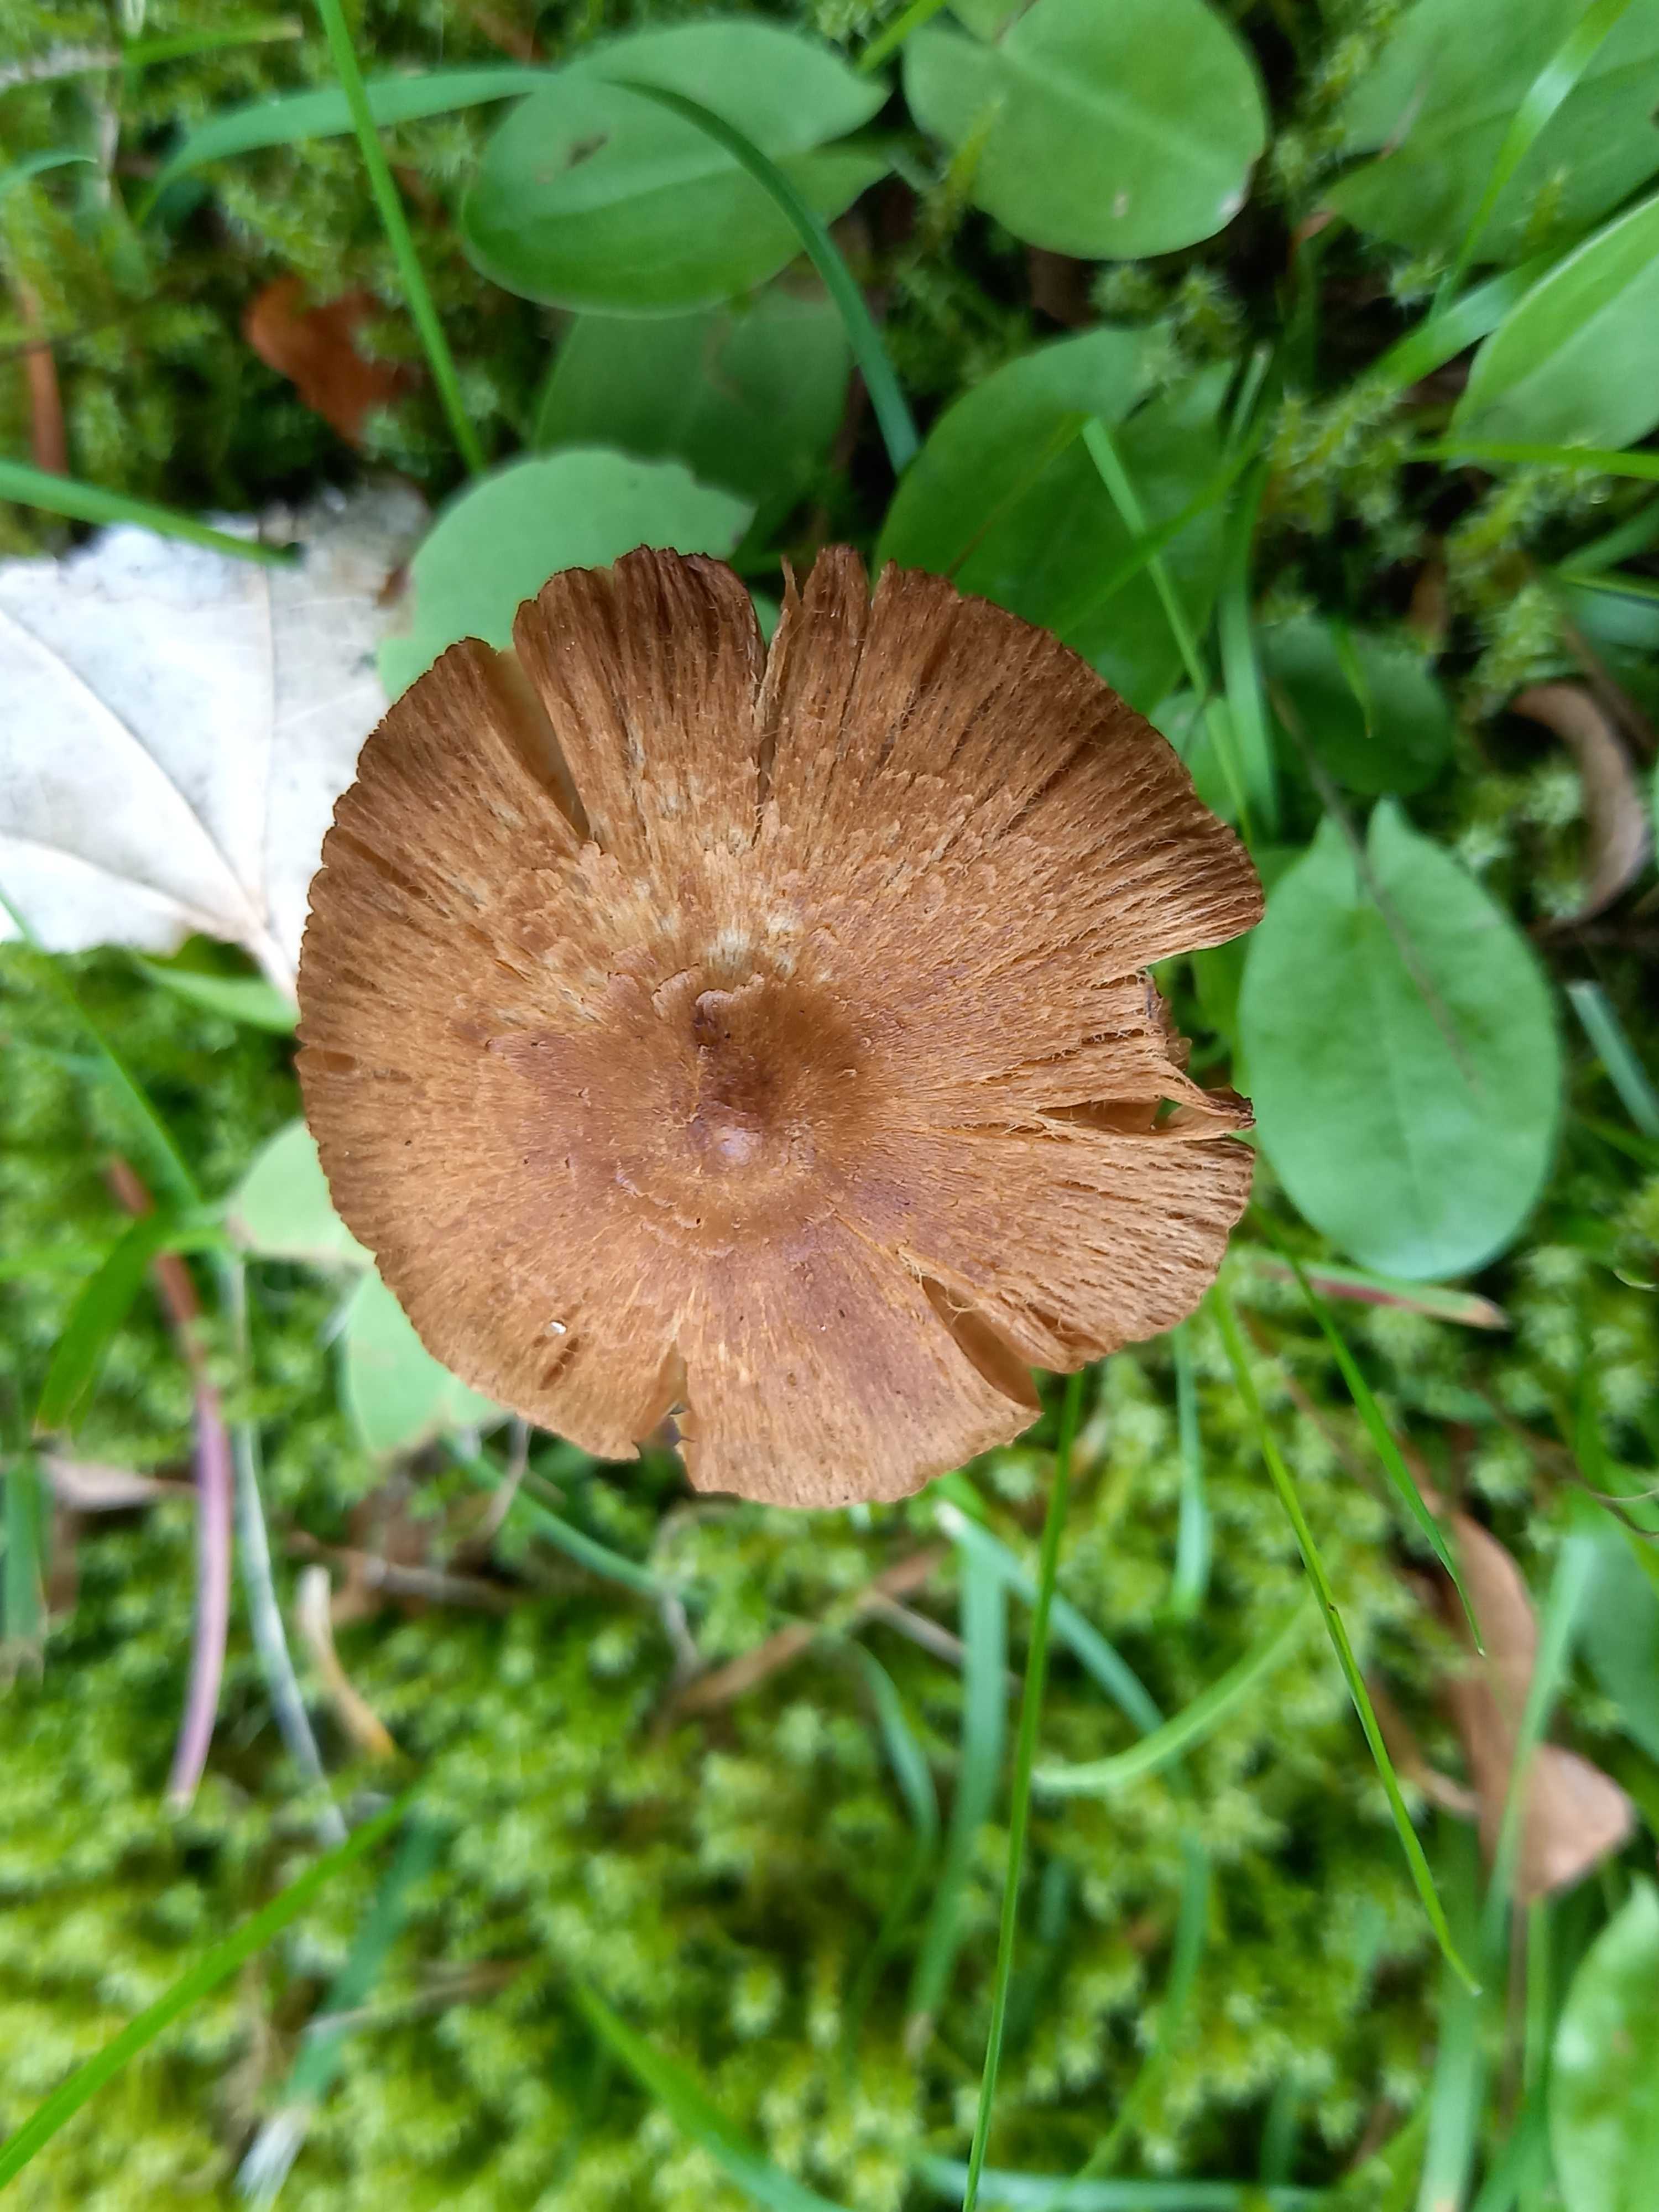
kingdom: Fungi
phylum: Basidiomycota
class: Agaricomycetes
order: Agaricales
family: Inocybaceae
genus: Inocybe
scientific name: Inocybe
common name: trævlhat
